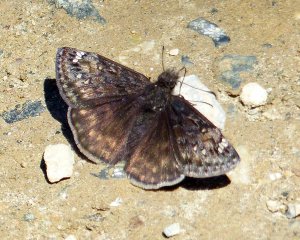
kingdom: Animalia
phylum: Arthropoda
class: Insecta
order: Lepidoptera
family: Hesperiidae
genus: Gesta
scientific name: Gesta
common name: Juvenal's Duskywing
